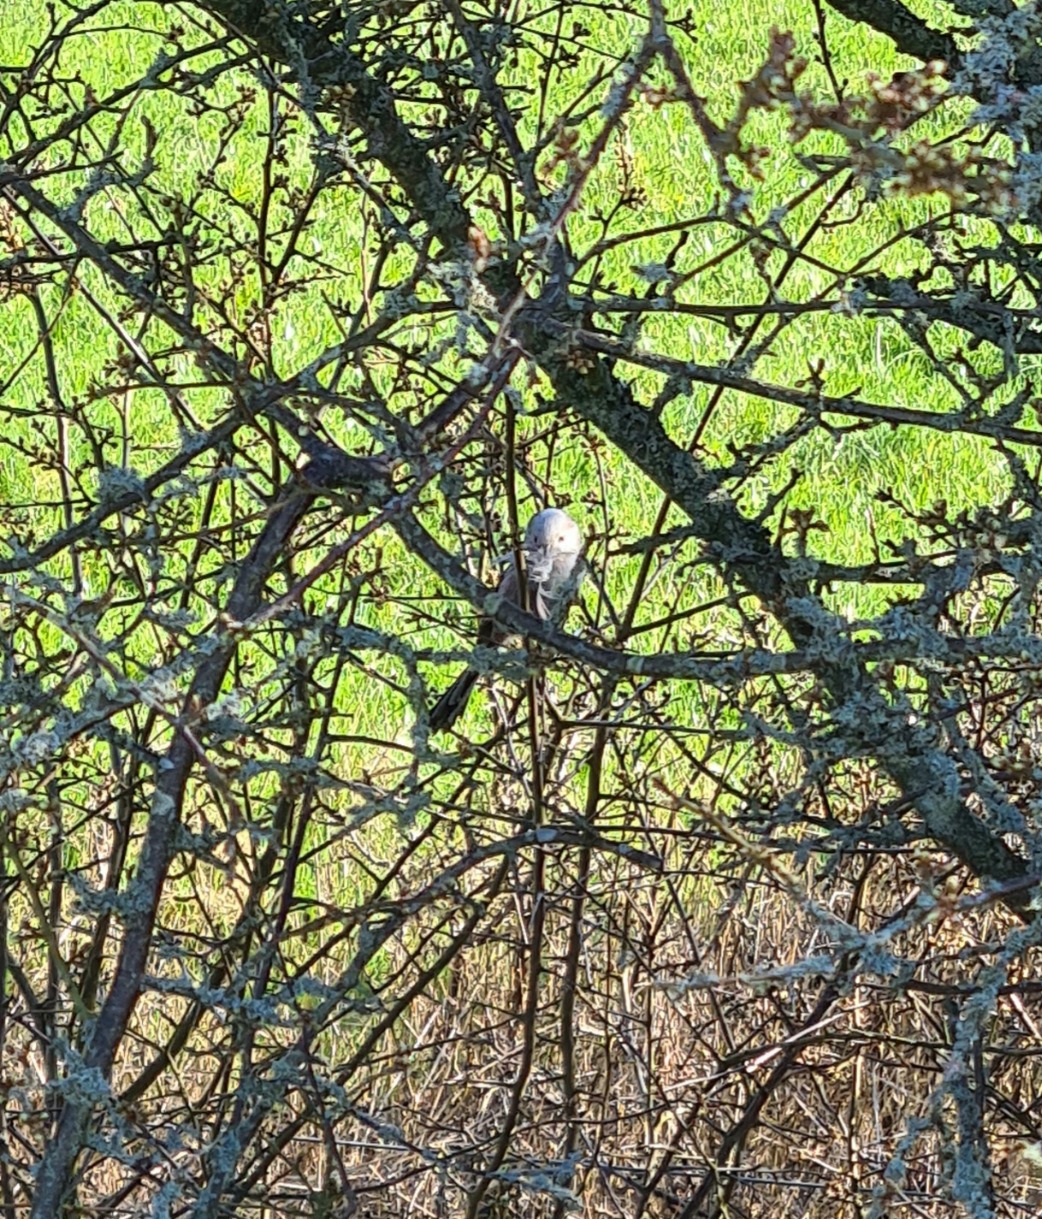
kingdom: Animalia
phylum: Chordata
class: Aves
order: Passeriformes
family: Aegithalidae
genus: Aegithalos
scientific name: Aegithalos caudatus
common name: Halemejse
